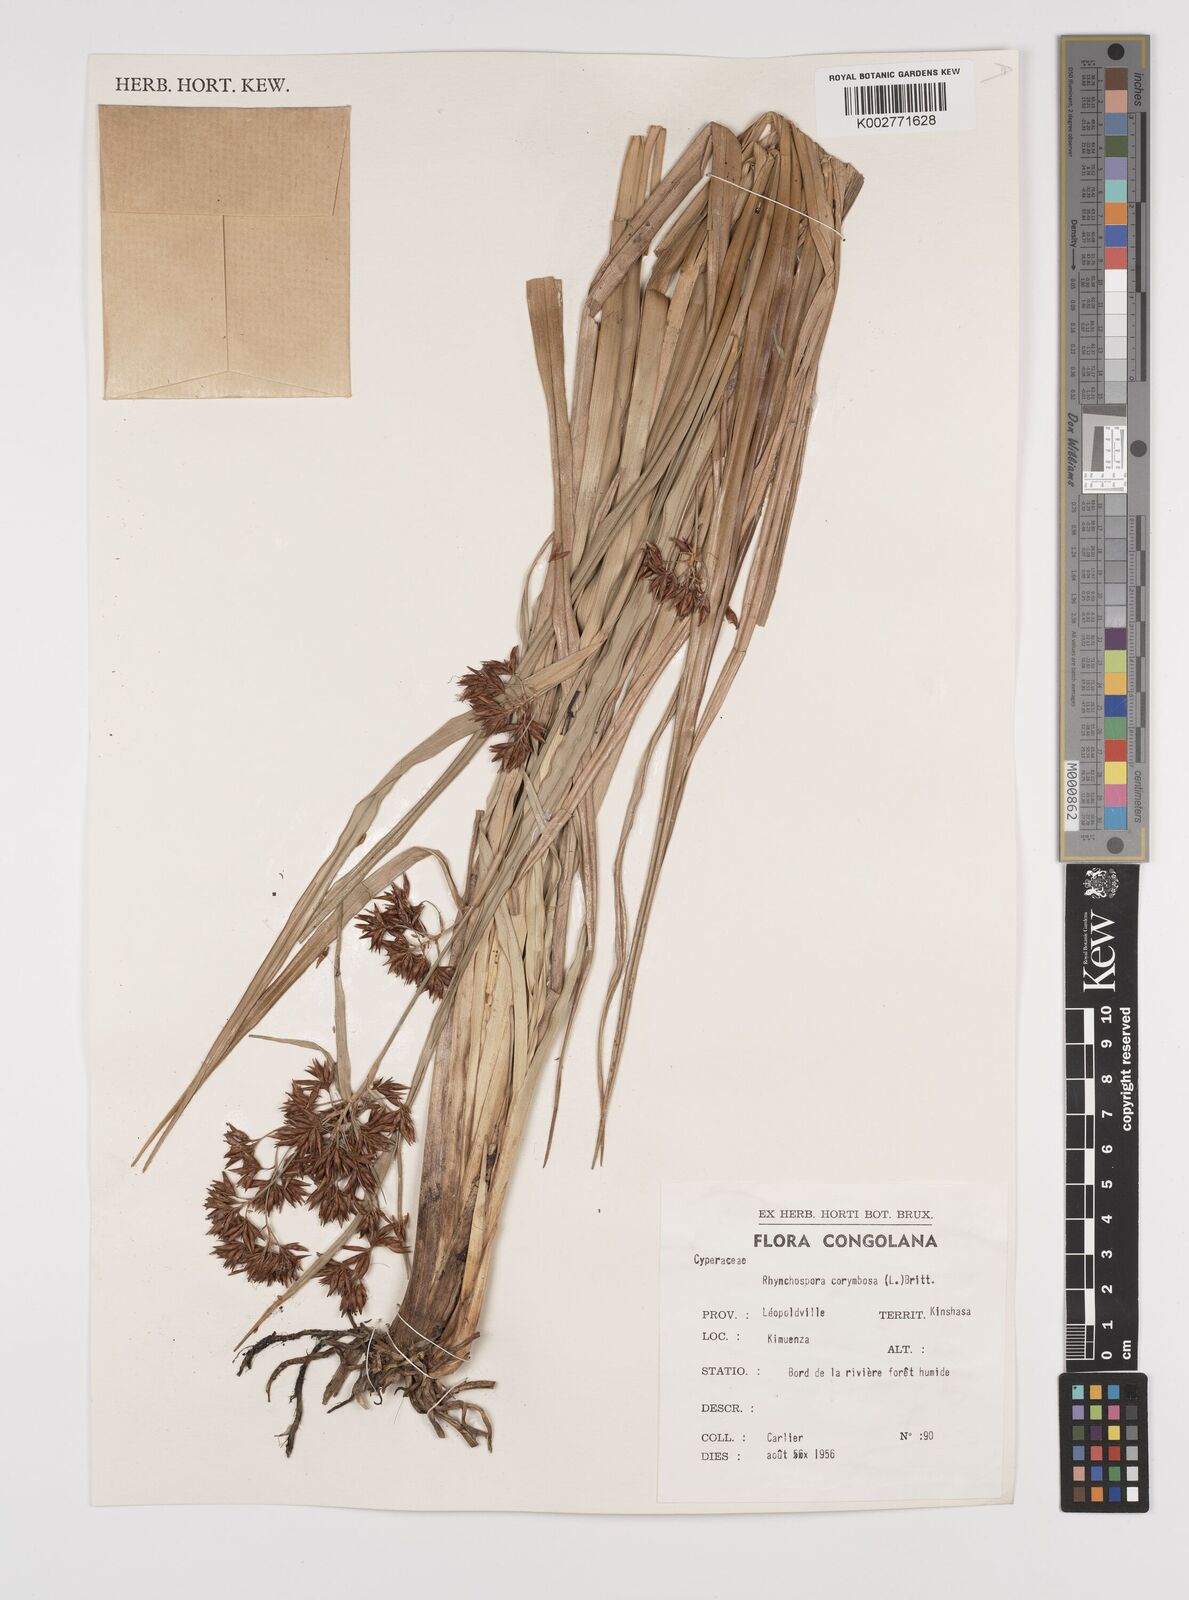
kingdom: Plantae
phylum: Tracheophyta
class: Liliopsida
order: Poales
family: Cyperaceae
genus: Rhynchospora
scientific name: Rhynchospora corymbosa
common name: Golden beak sedge
